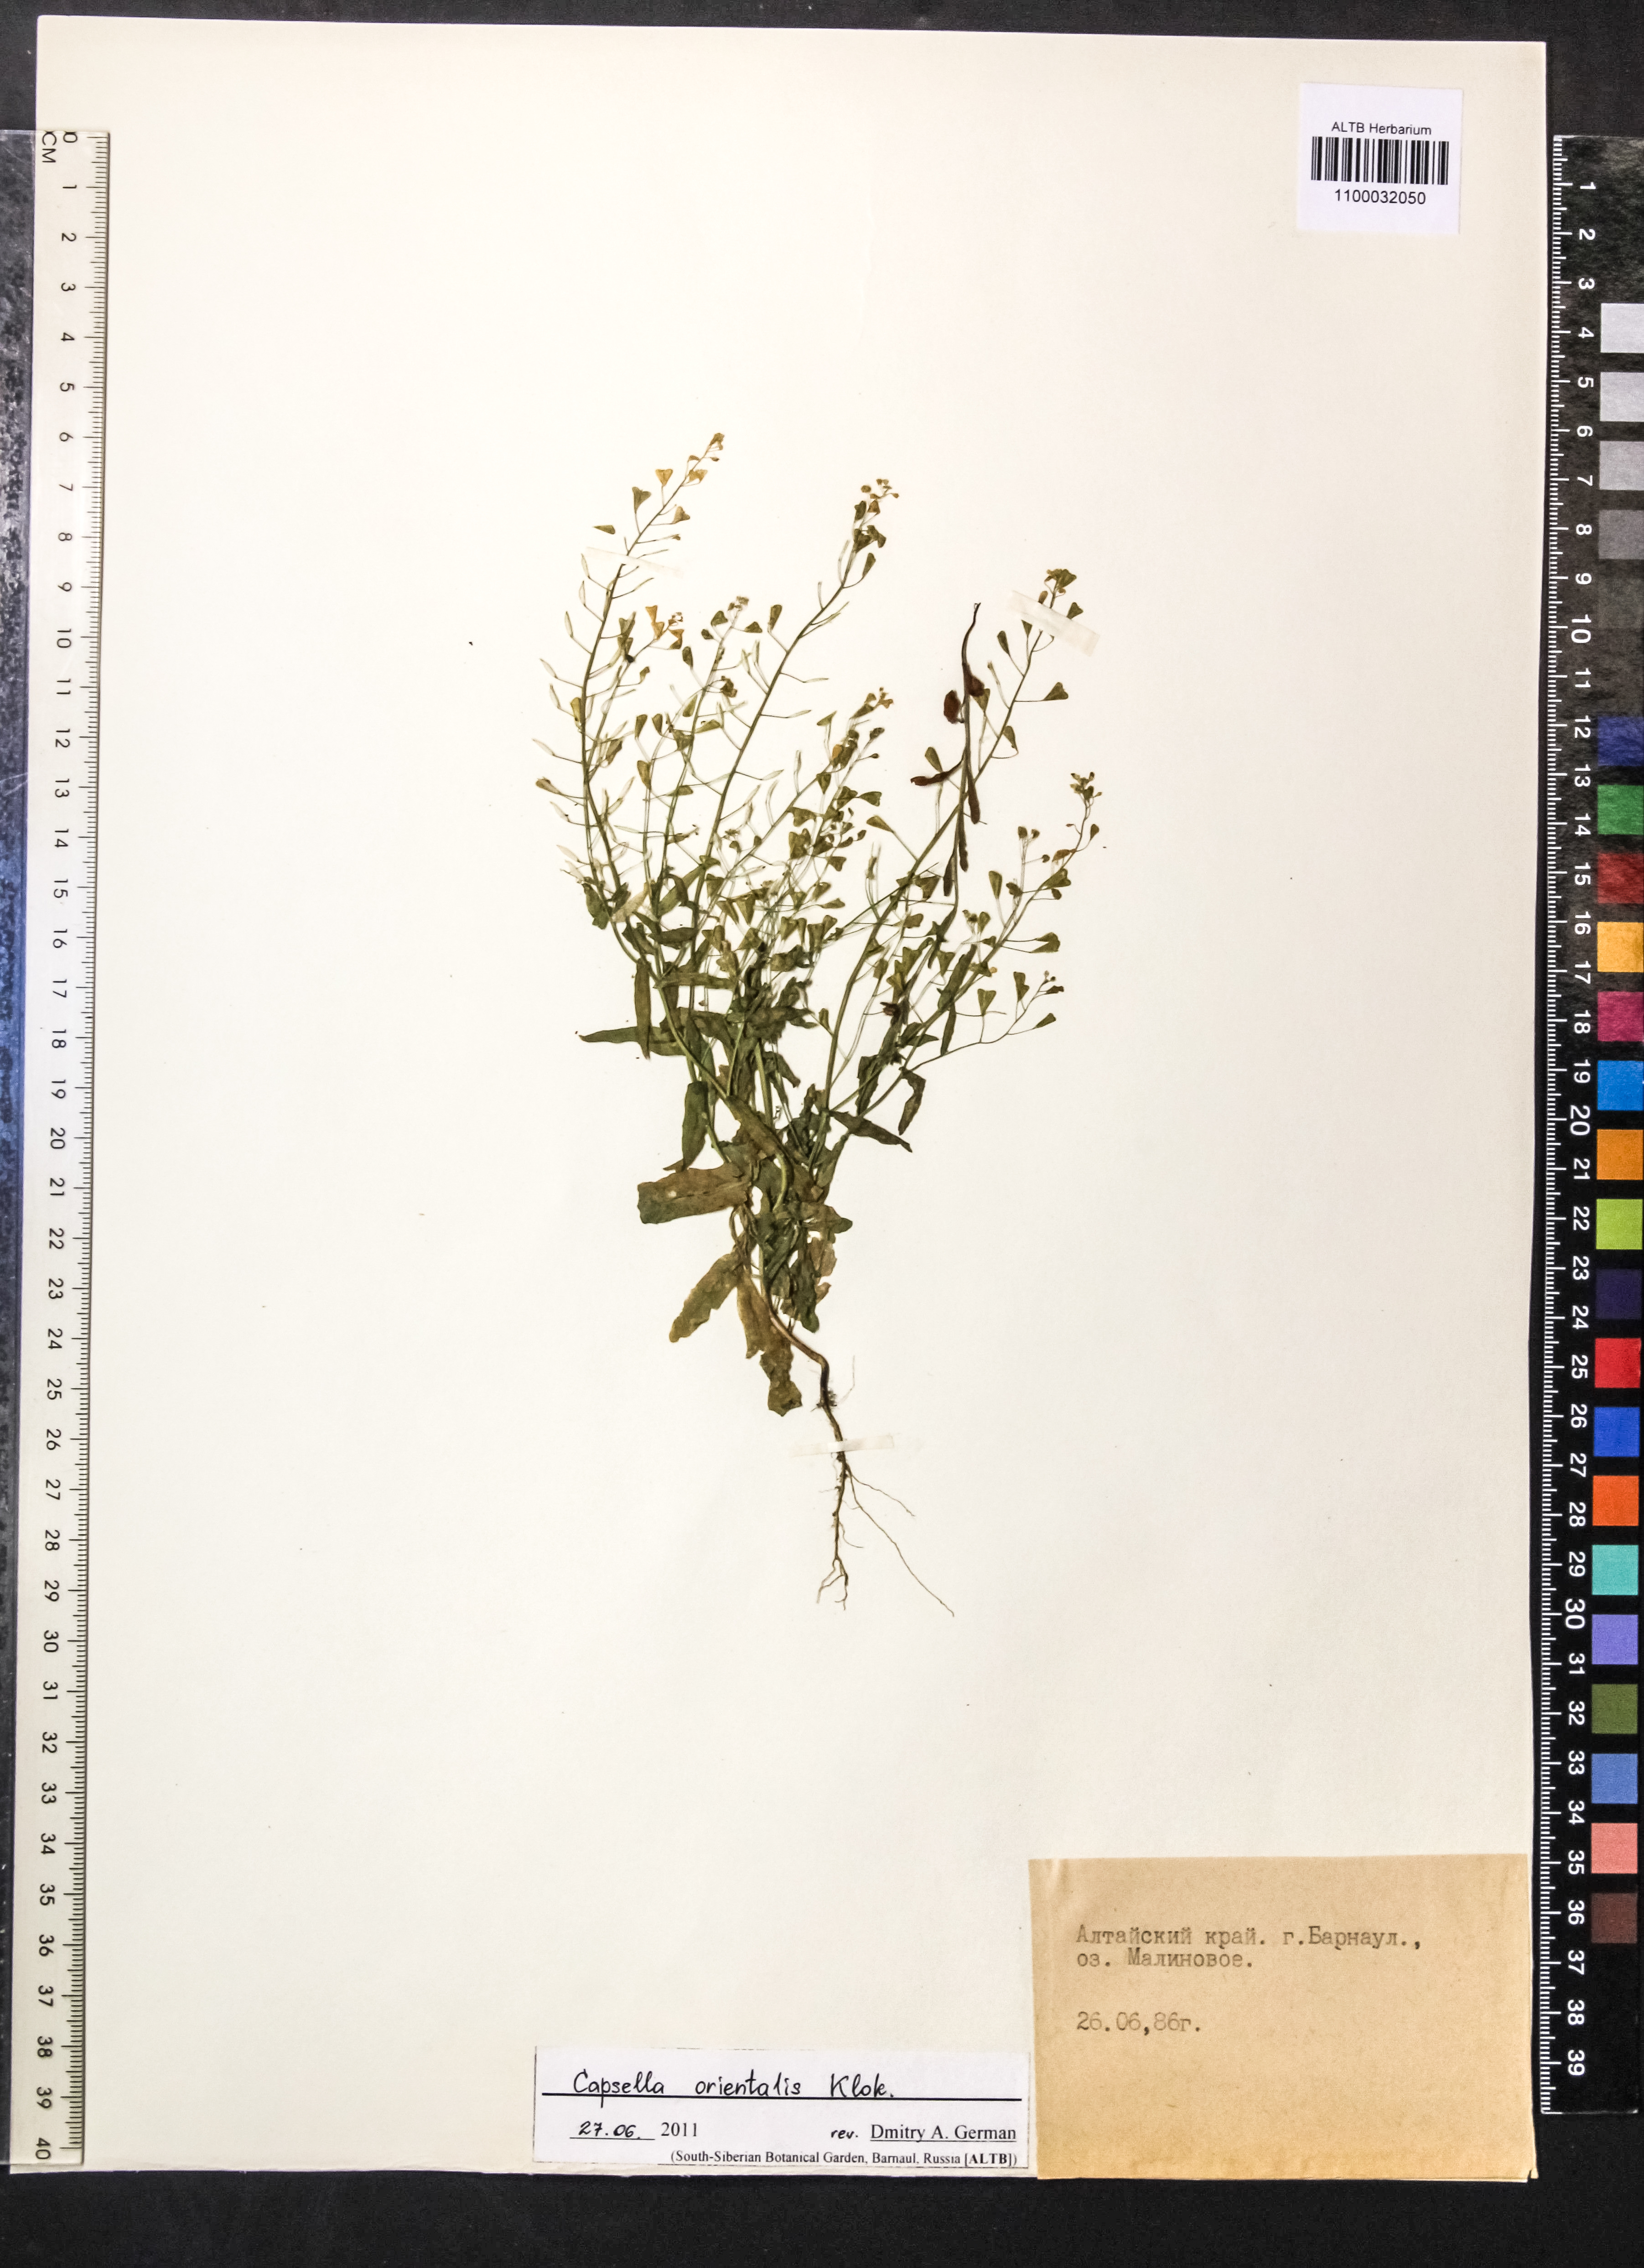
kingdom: Plantae
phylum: Tracheophyta
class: Magnoliopsida
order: Brassicales
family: Brassicaceae
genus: Capsella
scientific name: Capsella orientalis
